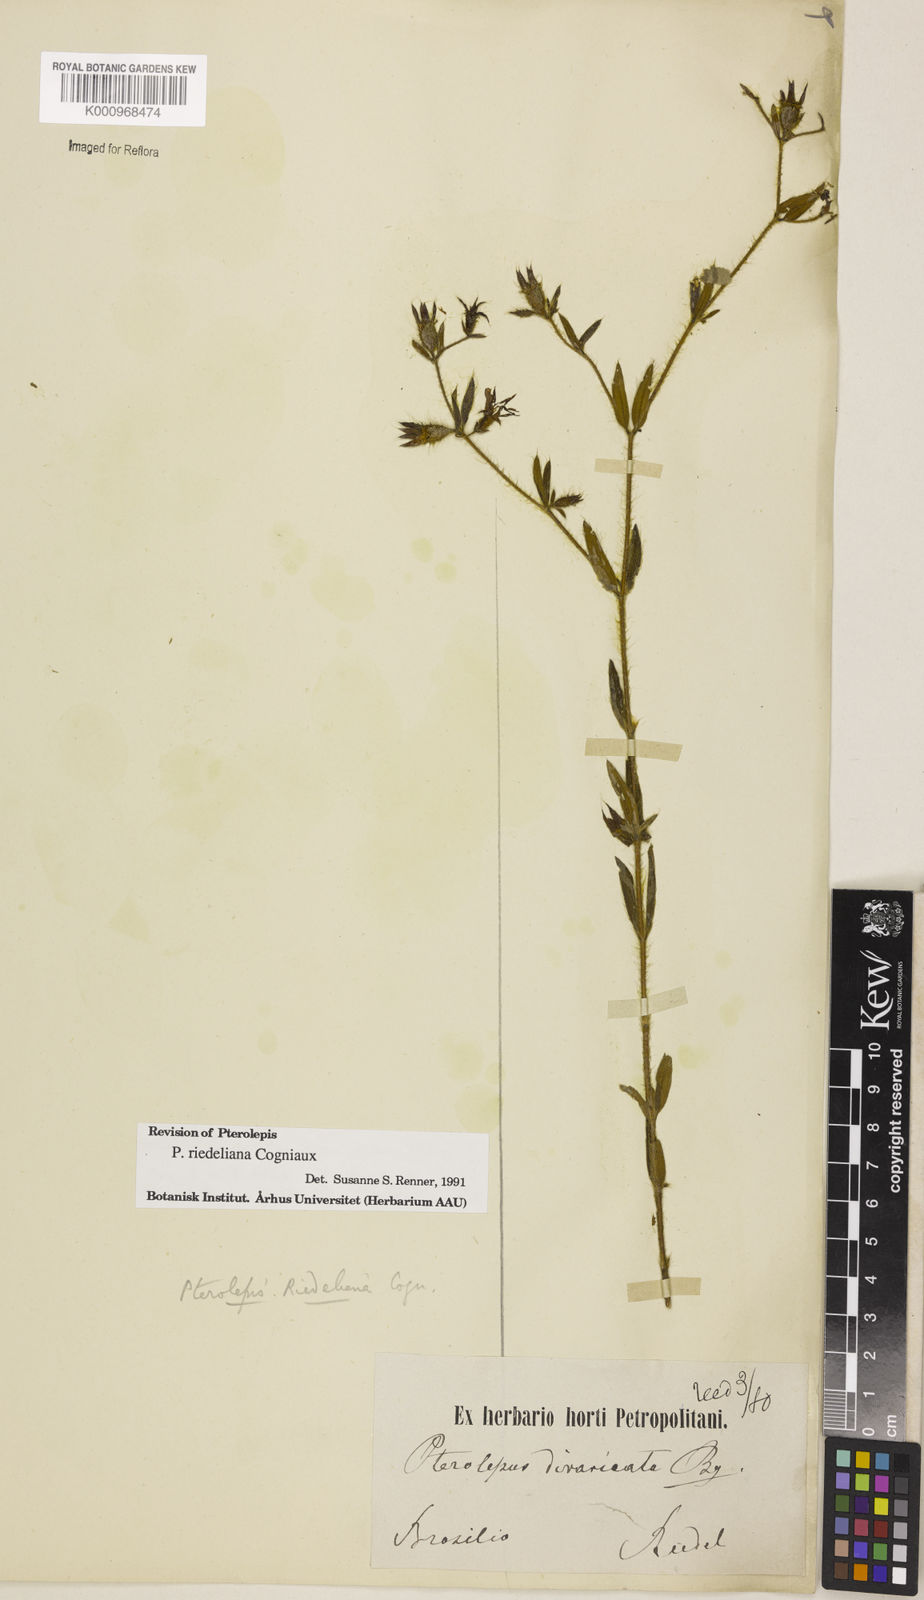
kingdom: Plantae
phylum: Tracheophyta
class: Magnoliopsida
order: Myrtales
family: Melastomataceae
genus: Pterolepis
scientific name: Pterolepis
